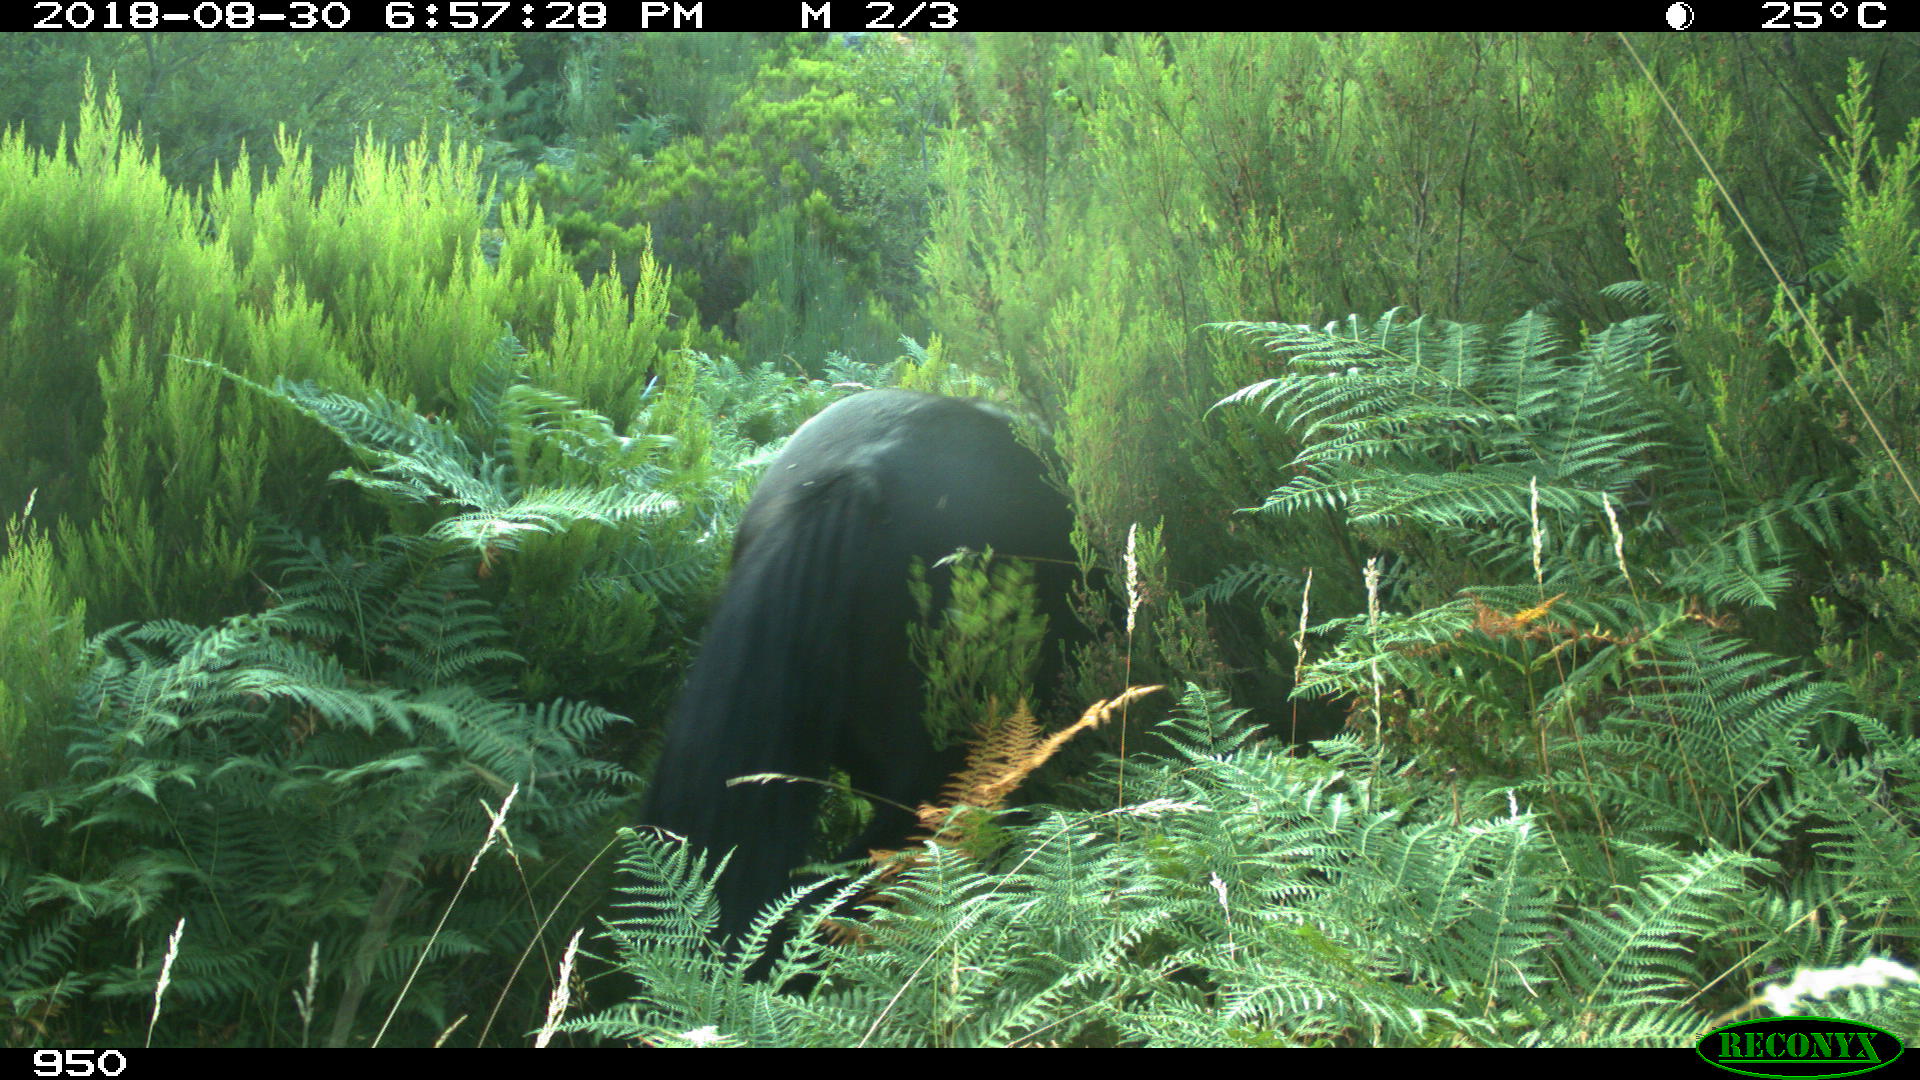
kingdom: Animalia
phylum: Chordata
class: Mammalia
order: Perissodactyla
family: Equidae
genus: Equus
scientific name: Equus caballus
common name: Horse
